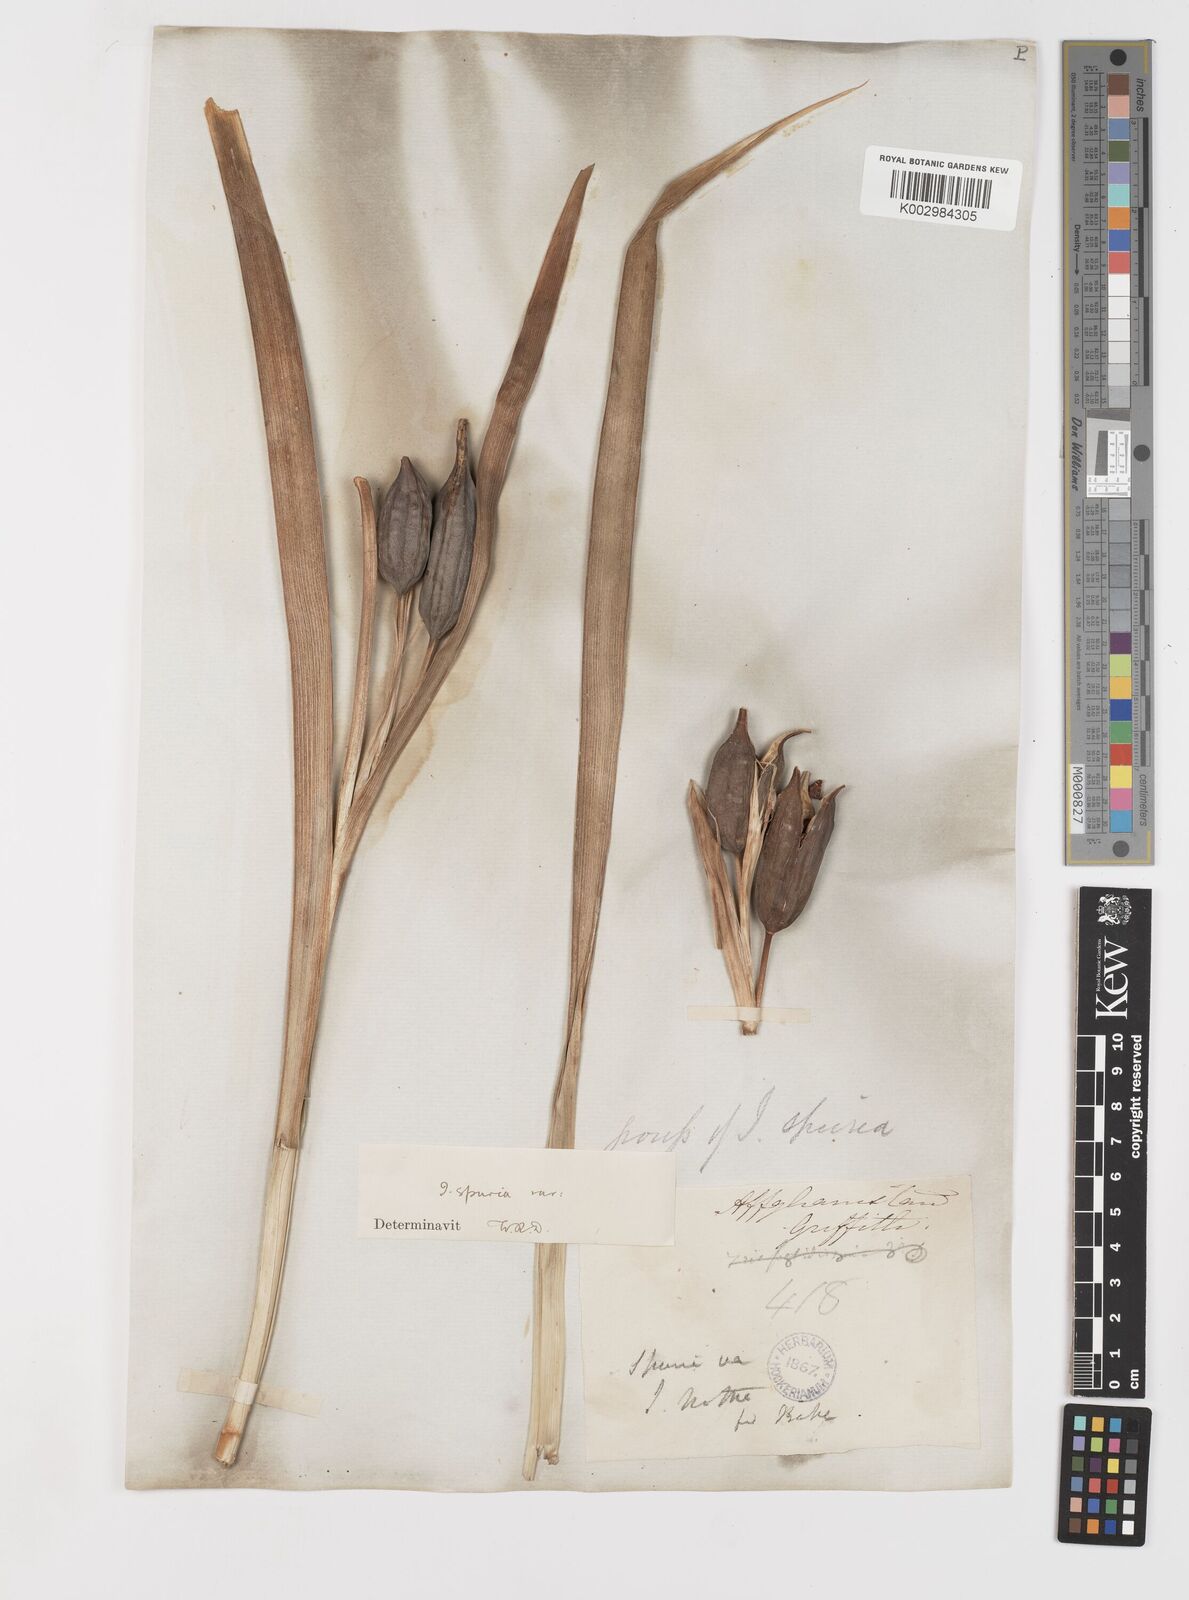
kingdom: Plantae
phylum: Tracheophyta
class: Liliopsida
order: Asparagales
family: Iridaceae
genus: Iris
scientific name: Iris spuria
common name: Blue iris
